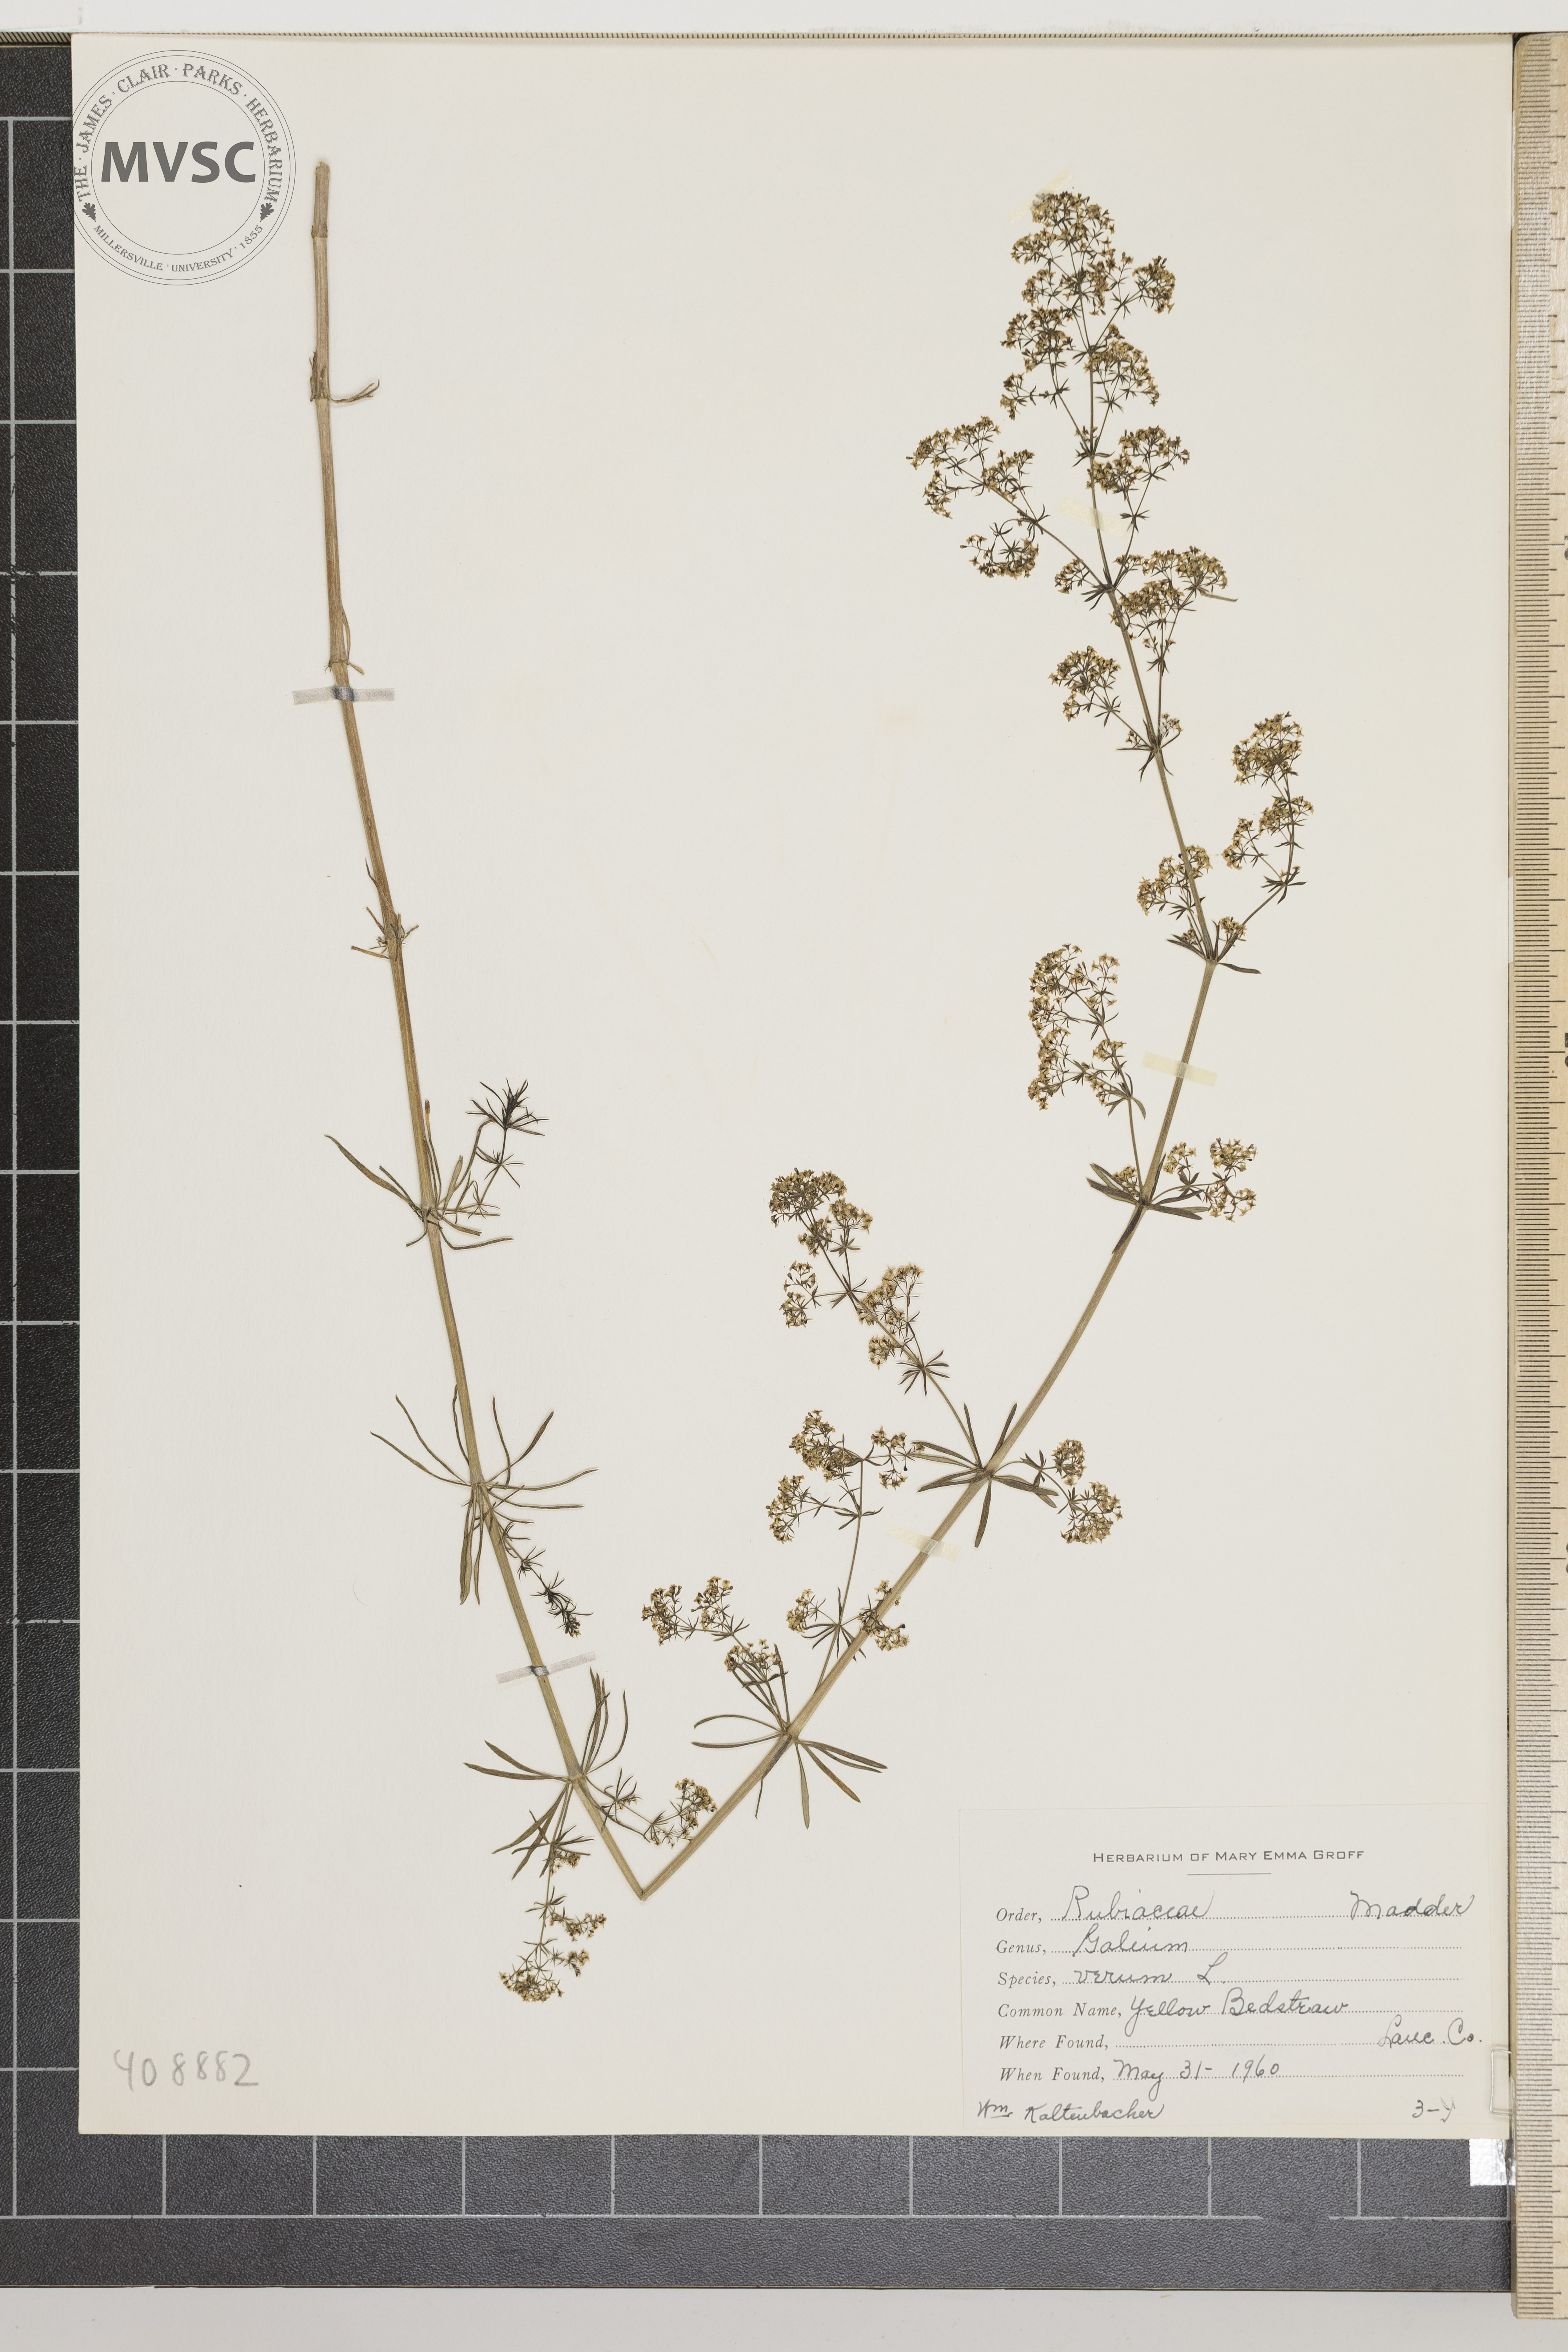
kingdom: Plantae
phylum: Tracheophyta
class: Magnoliopsida
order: Gentianales
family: Rubiaceae
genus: Galium
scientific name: Galium verum
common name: Yellow Bedstraw
